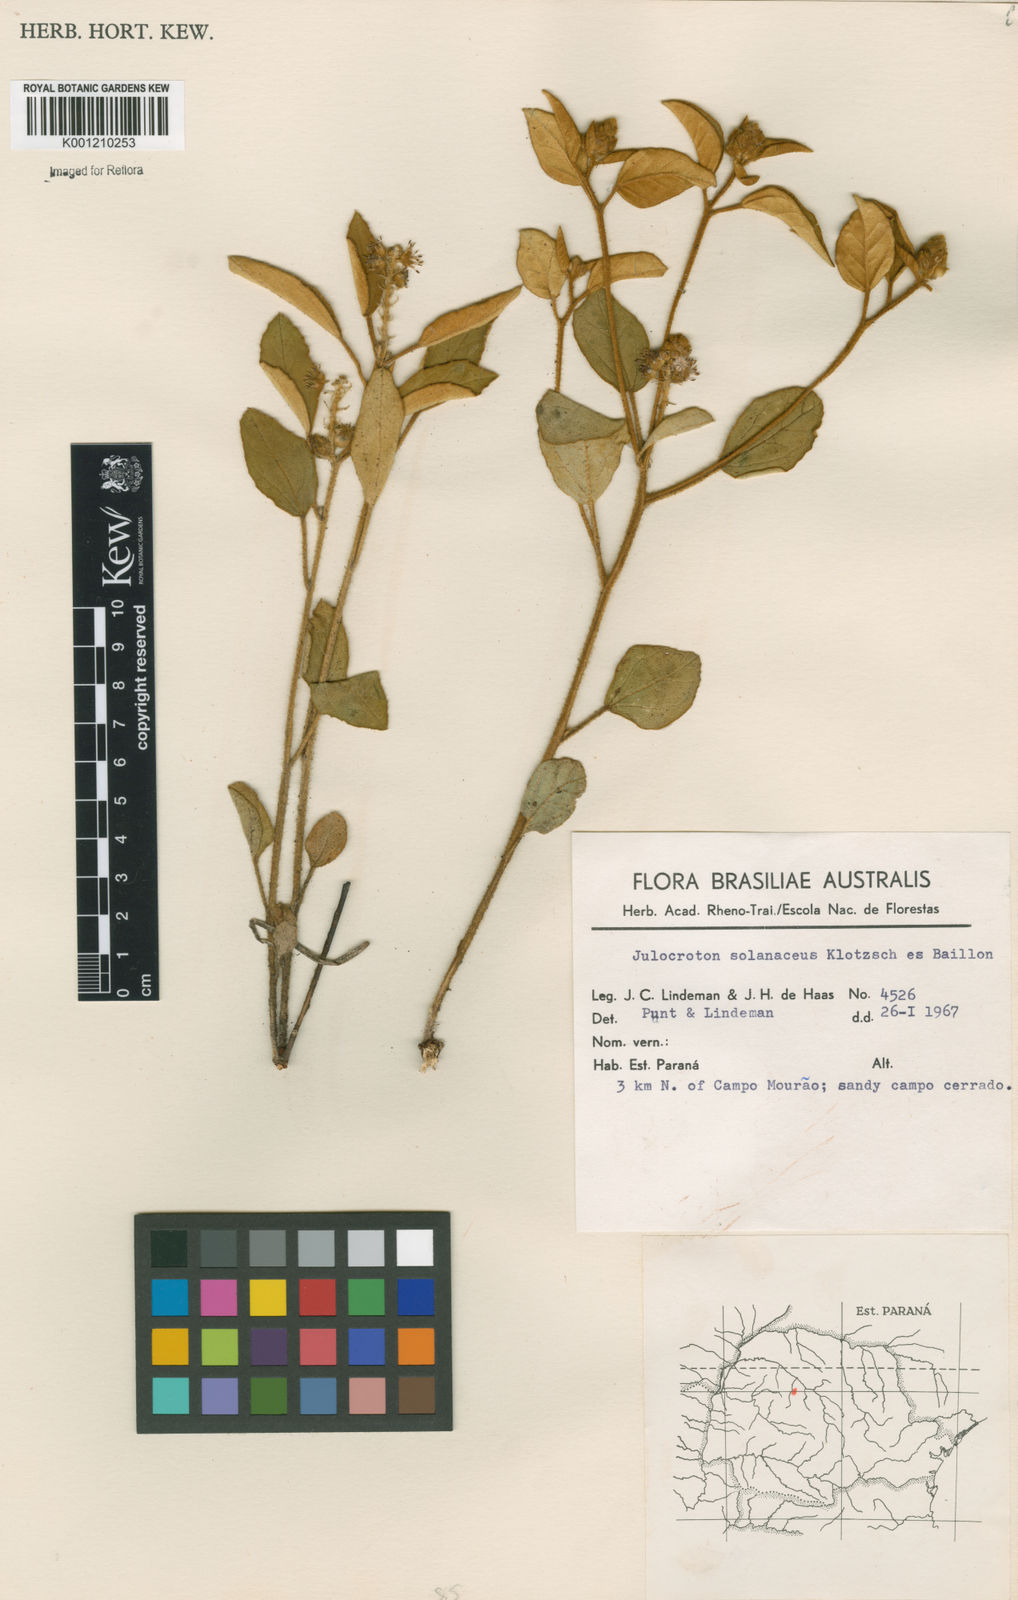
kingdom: Plantae
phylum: Tracheophyta
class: Magnoliopsida
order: Malpighiales
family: Euphorbiaceae
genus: Croton
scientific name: Croton
